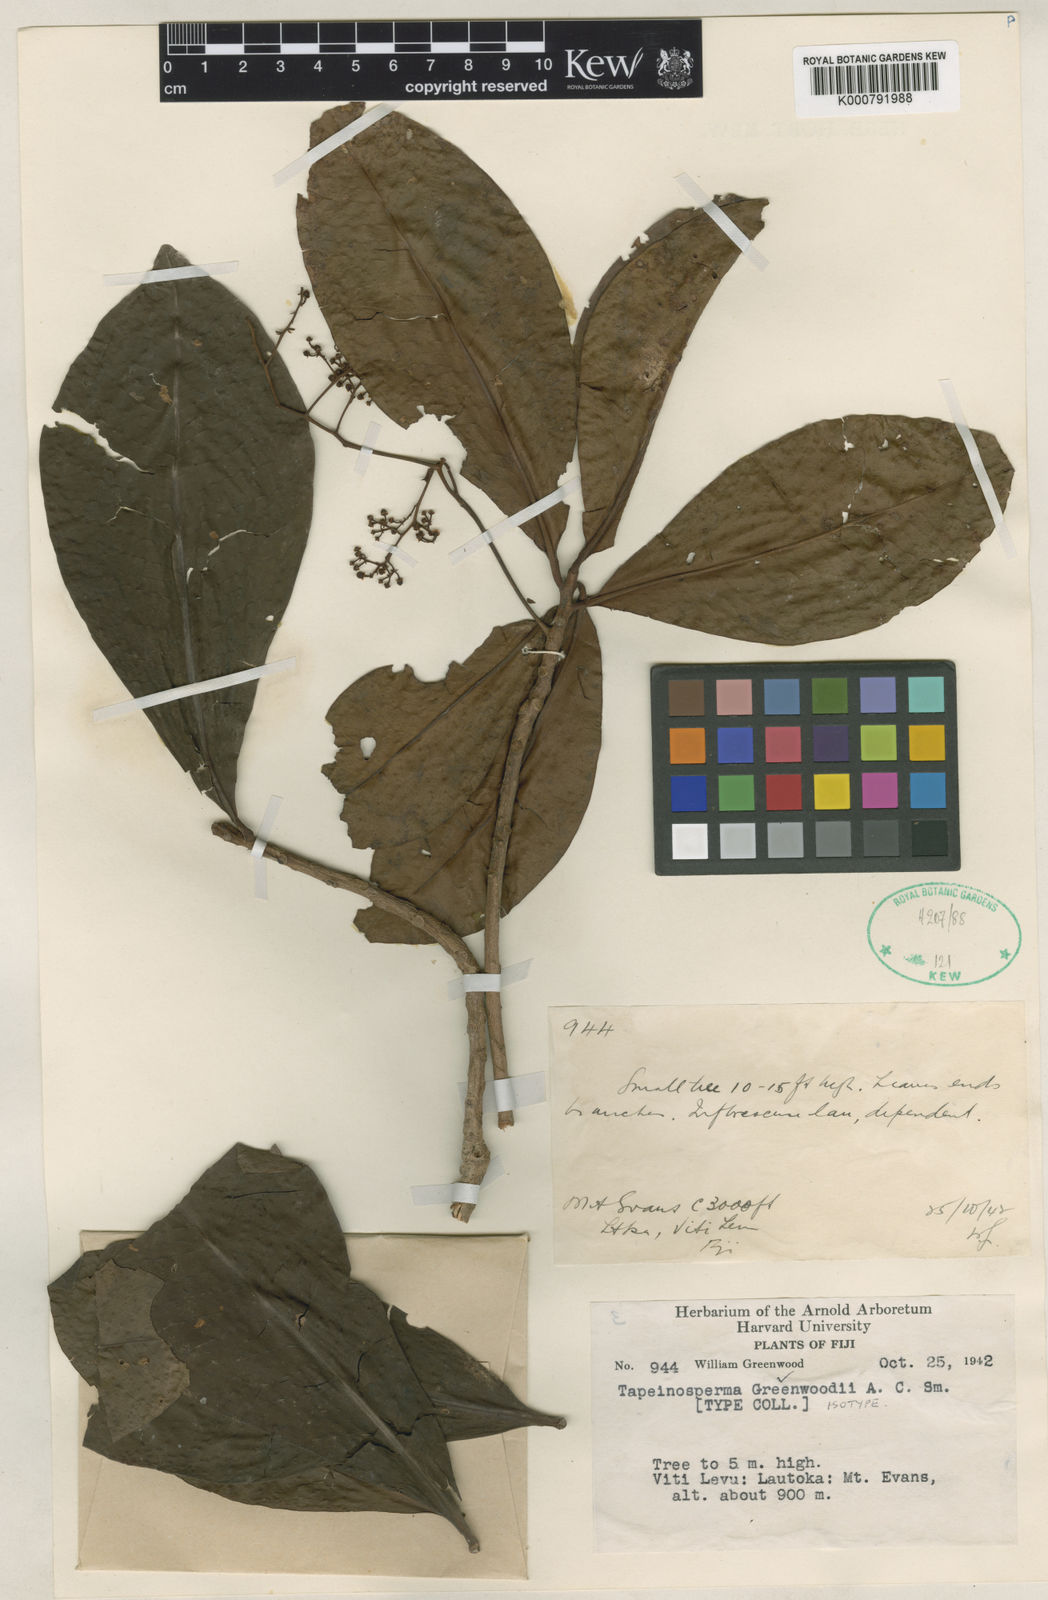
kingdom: Plantae
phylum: Tracheophyta
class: Magnoliopsida
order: Ericales
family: Primulaceae
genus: Tapeinosperma
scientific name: Tapeinosperma greenwoodii
